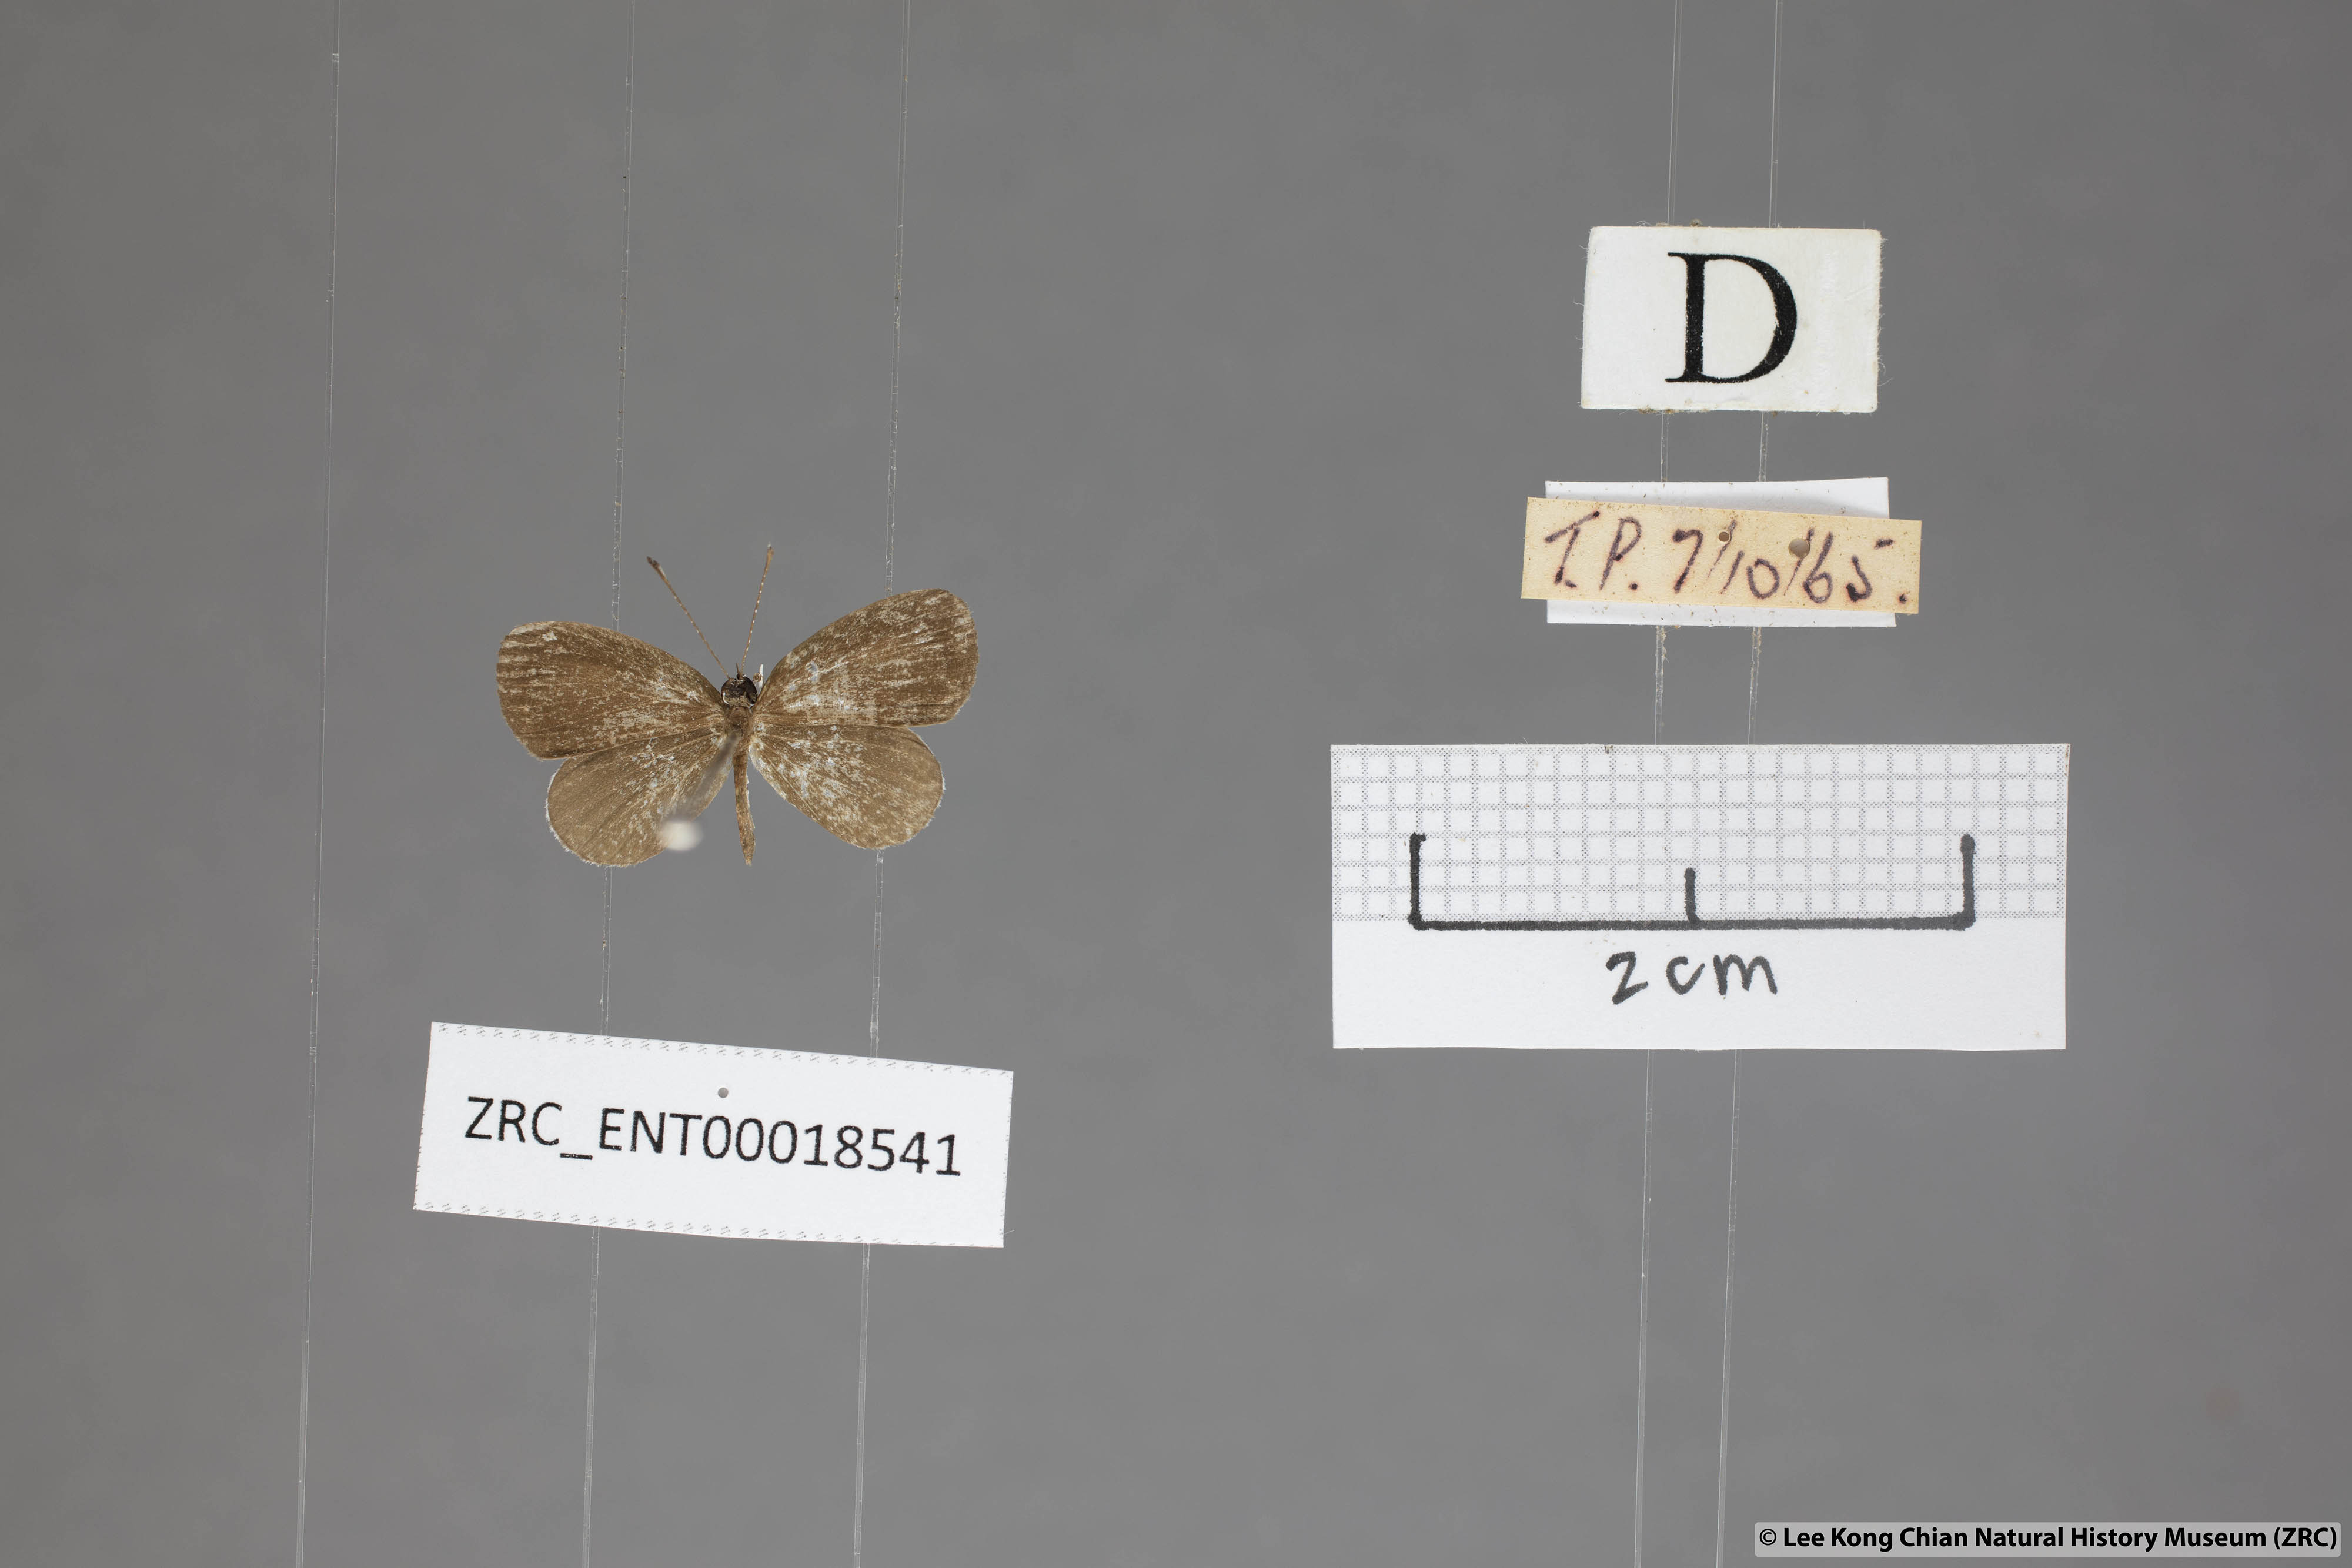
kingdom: Animalia
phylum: Arthropoda
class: Insecta
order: Lepidoptera
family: Lycaenidae
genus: Pithecops
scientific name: Pithecops corvus
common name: Forest quaker
